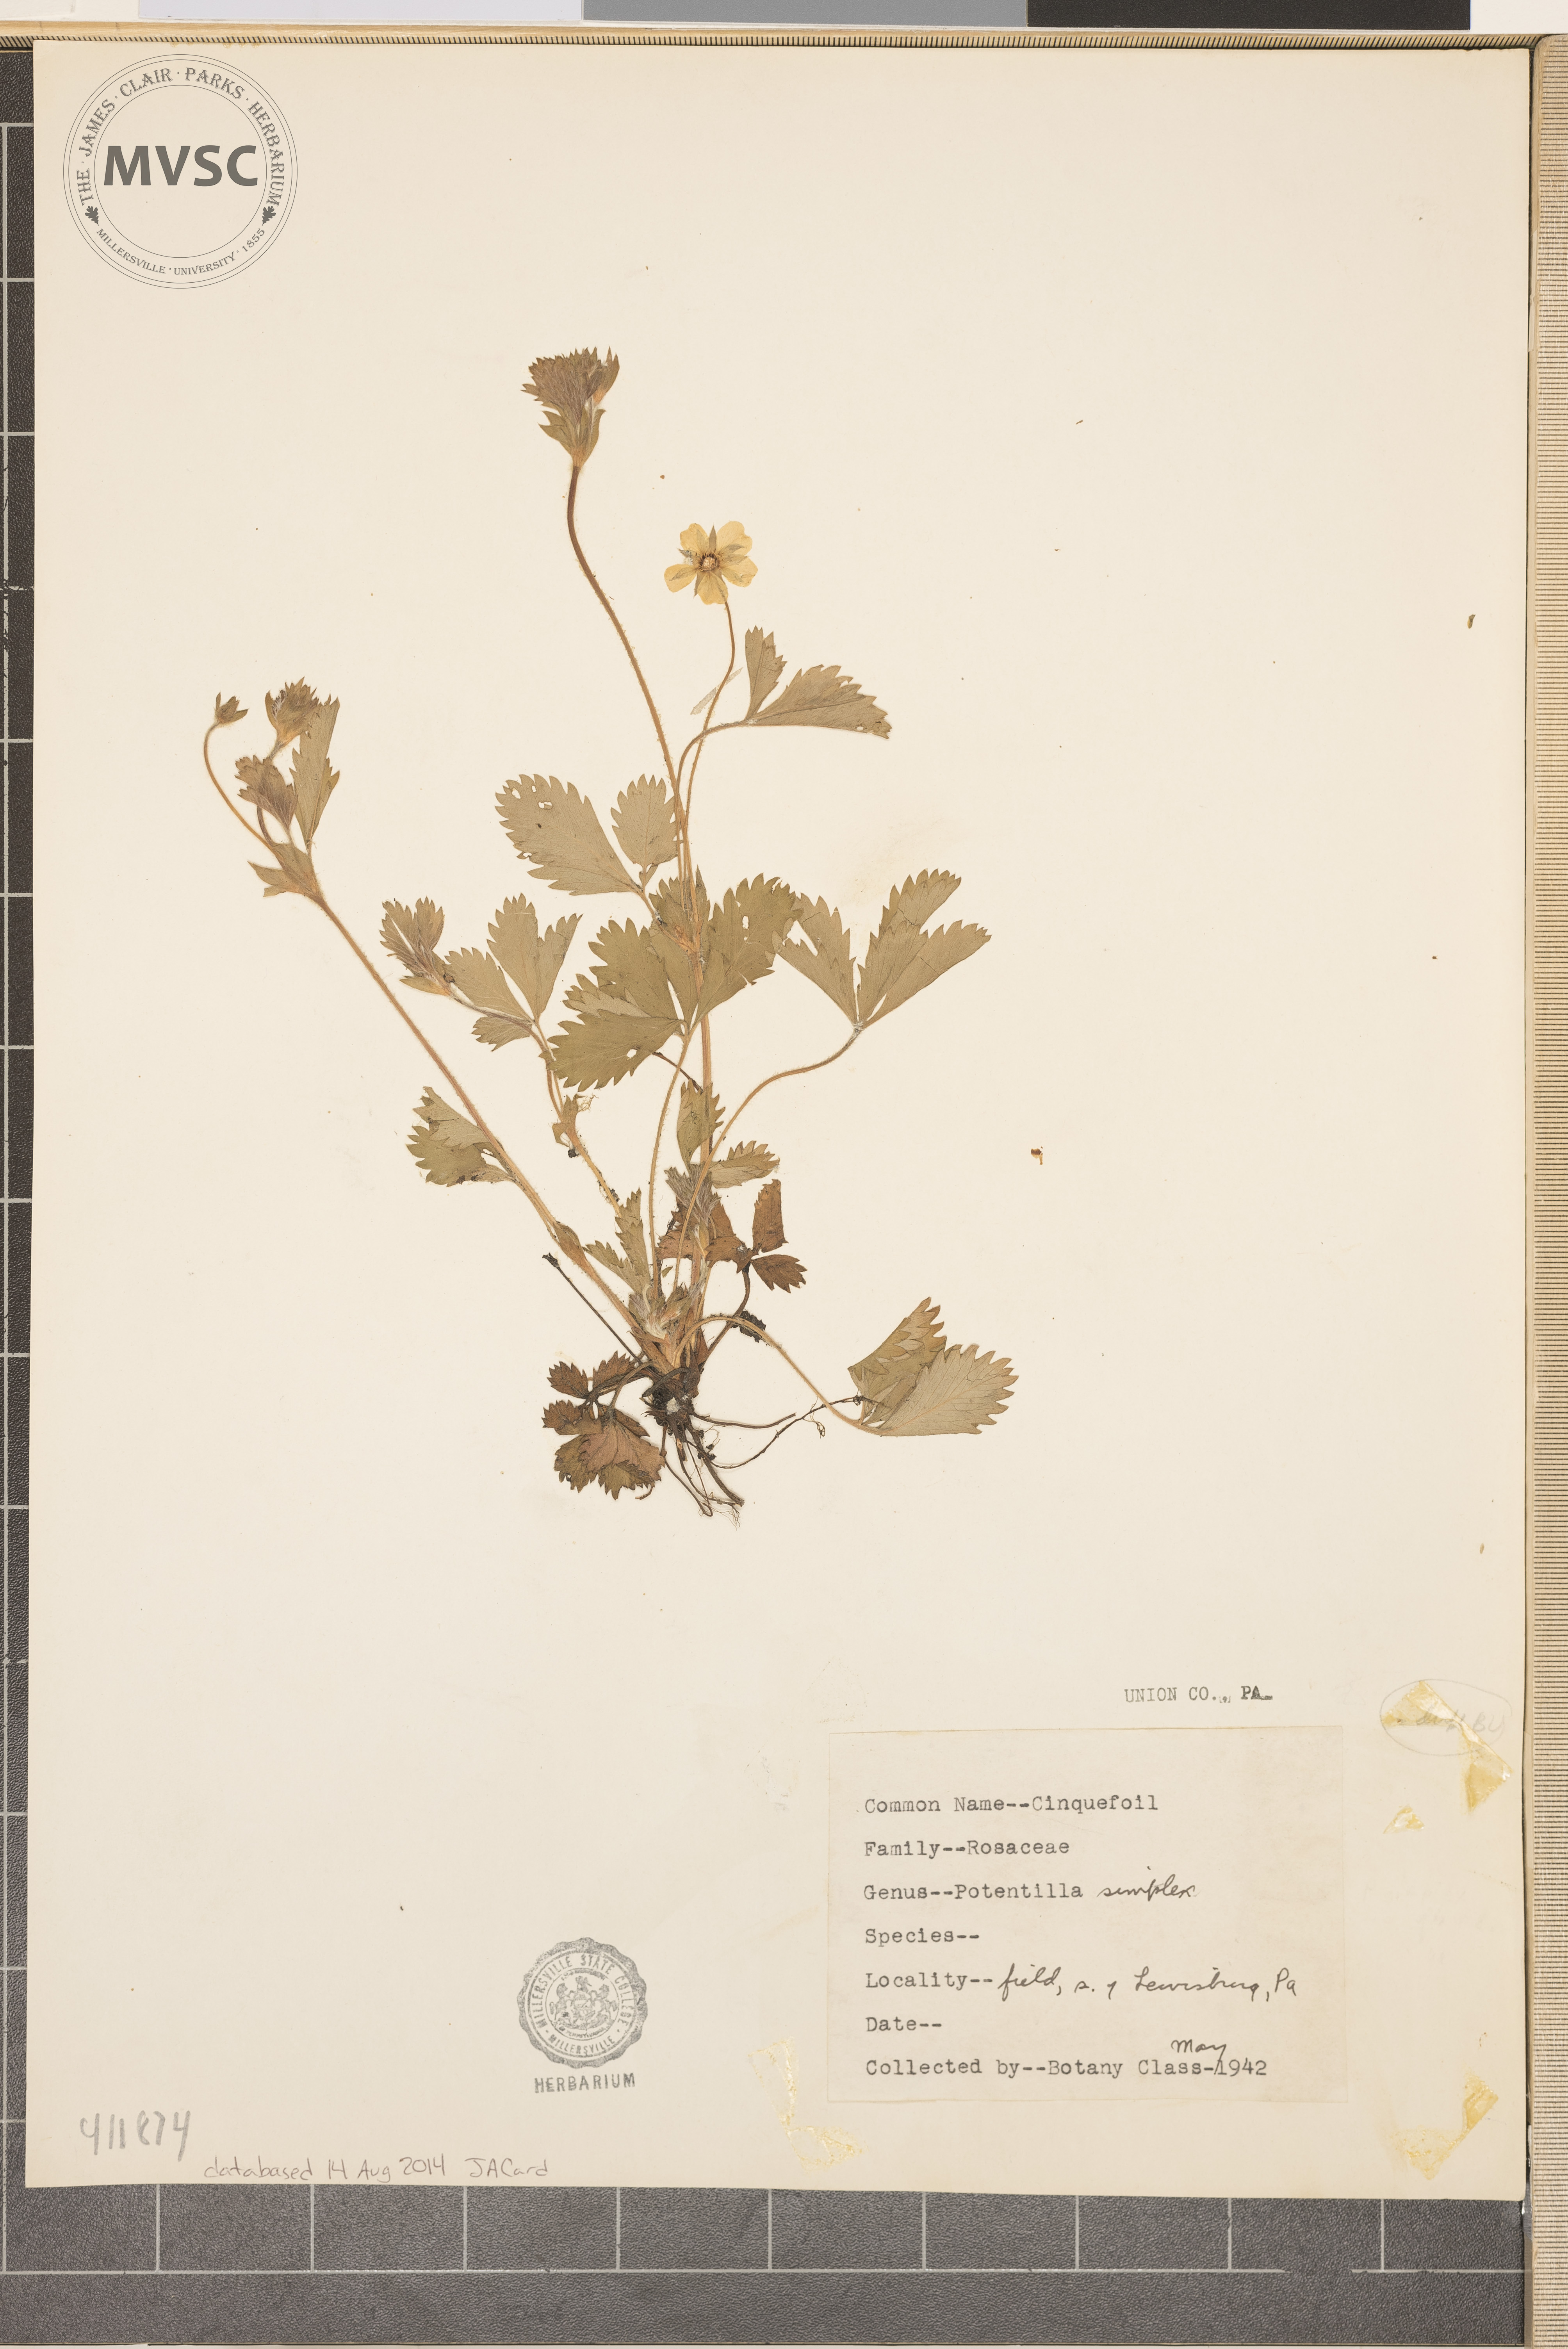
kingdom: Plantae
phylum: Tracheophyta
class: Magnoliopsida
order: Rosales
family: Rosaceae
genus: Potentilla
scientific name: Potentilla simplex
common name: Old field cinquefoil
